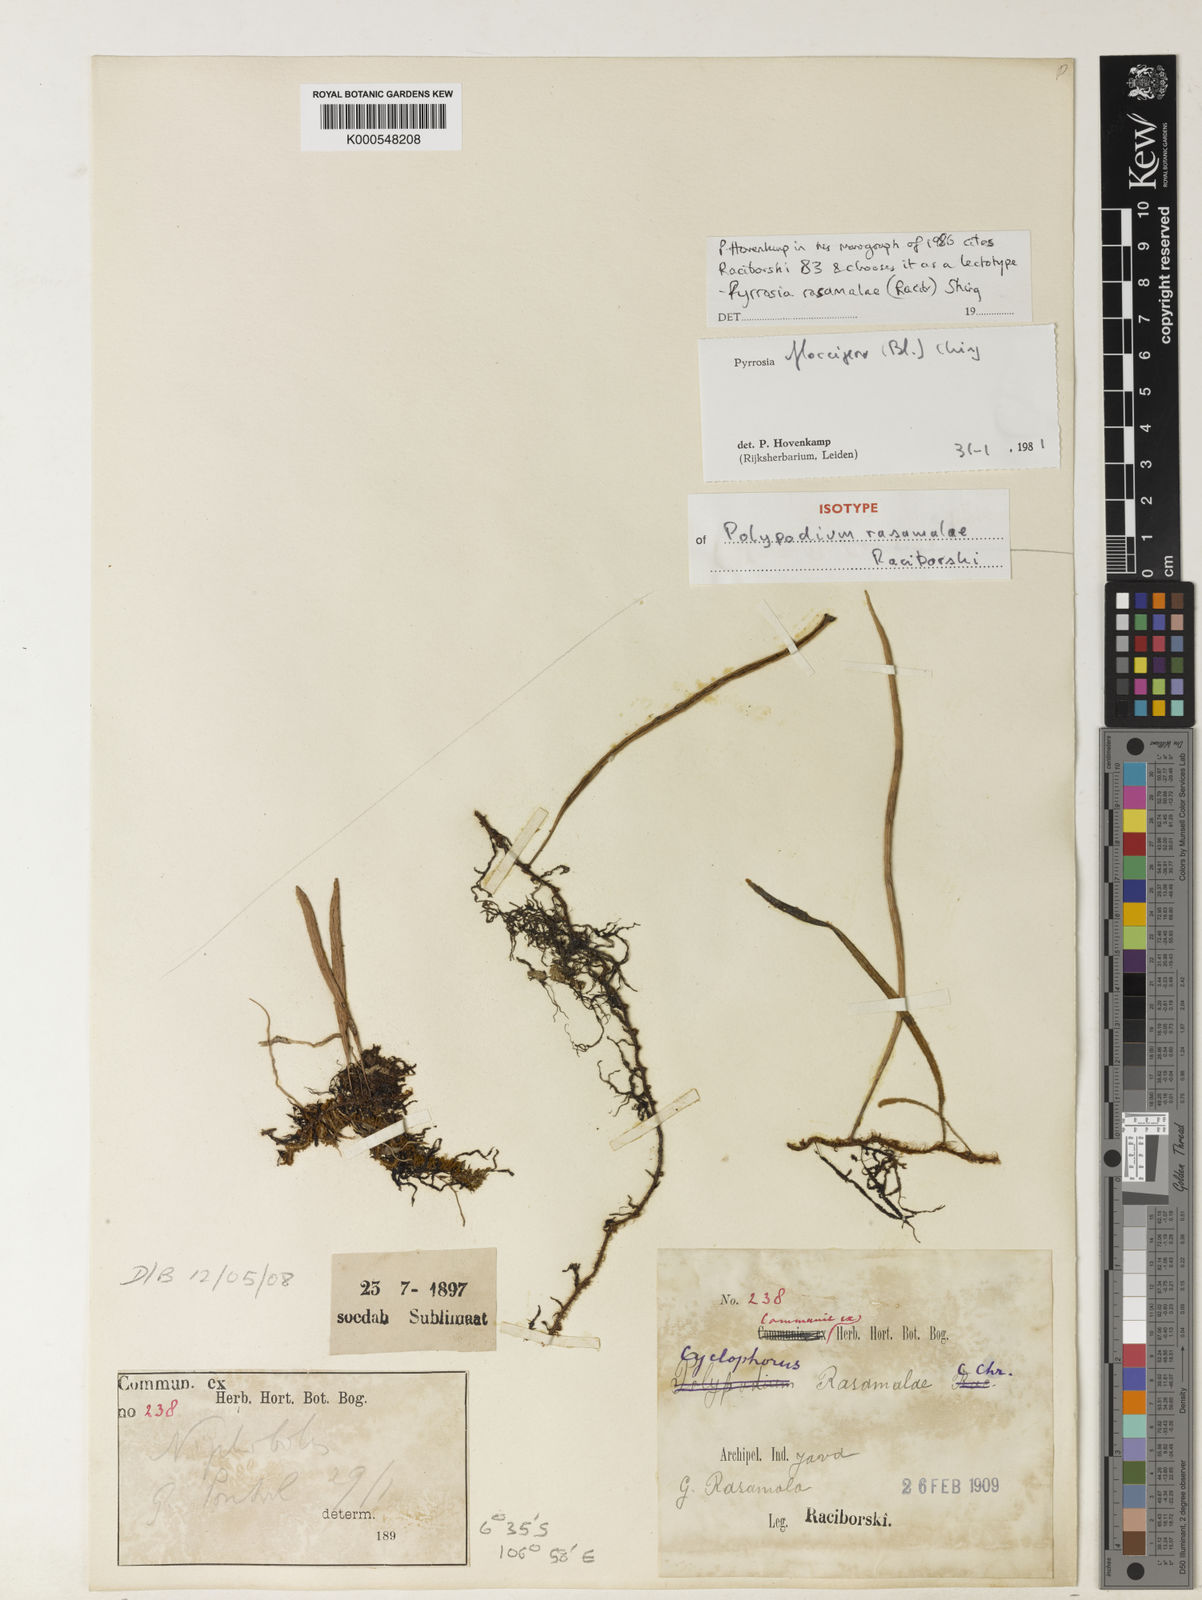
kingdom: Plantae
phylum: Tracheophyta
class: Polypodiopsida
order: Polypodiales
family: Polypodiaceae
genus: Pyrrosia
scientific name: Pyrrosia rasamalae
